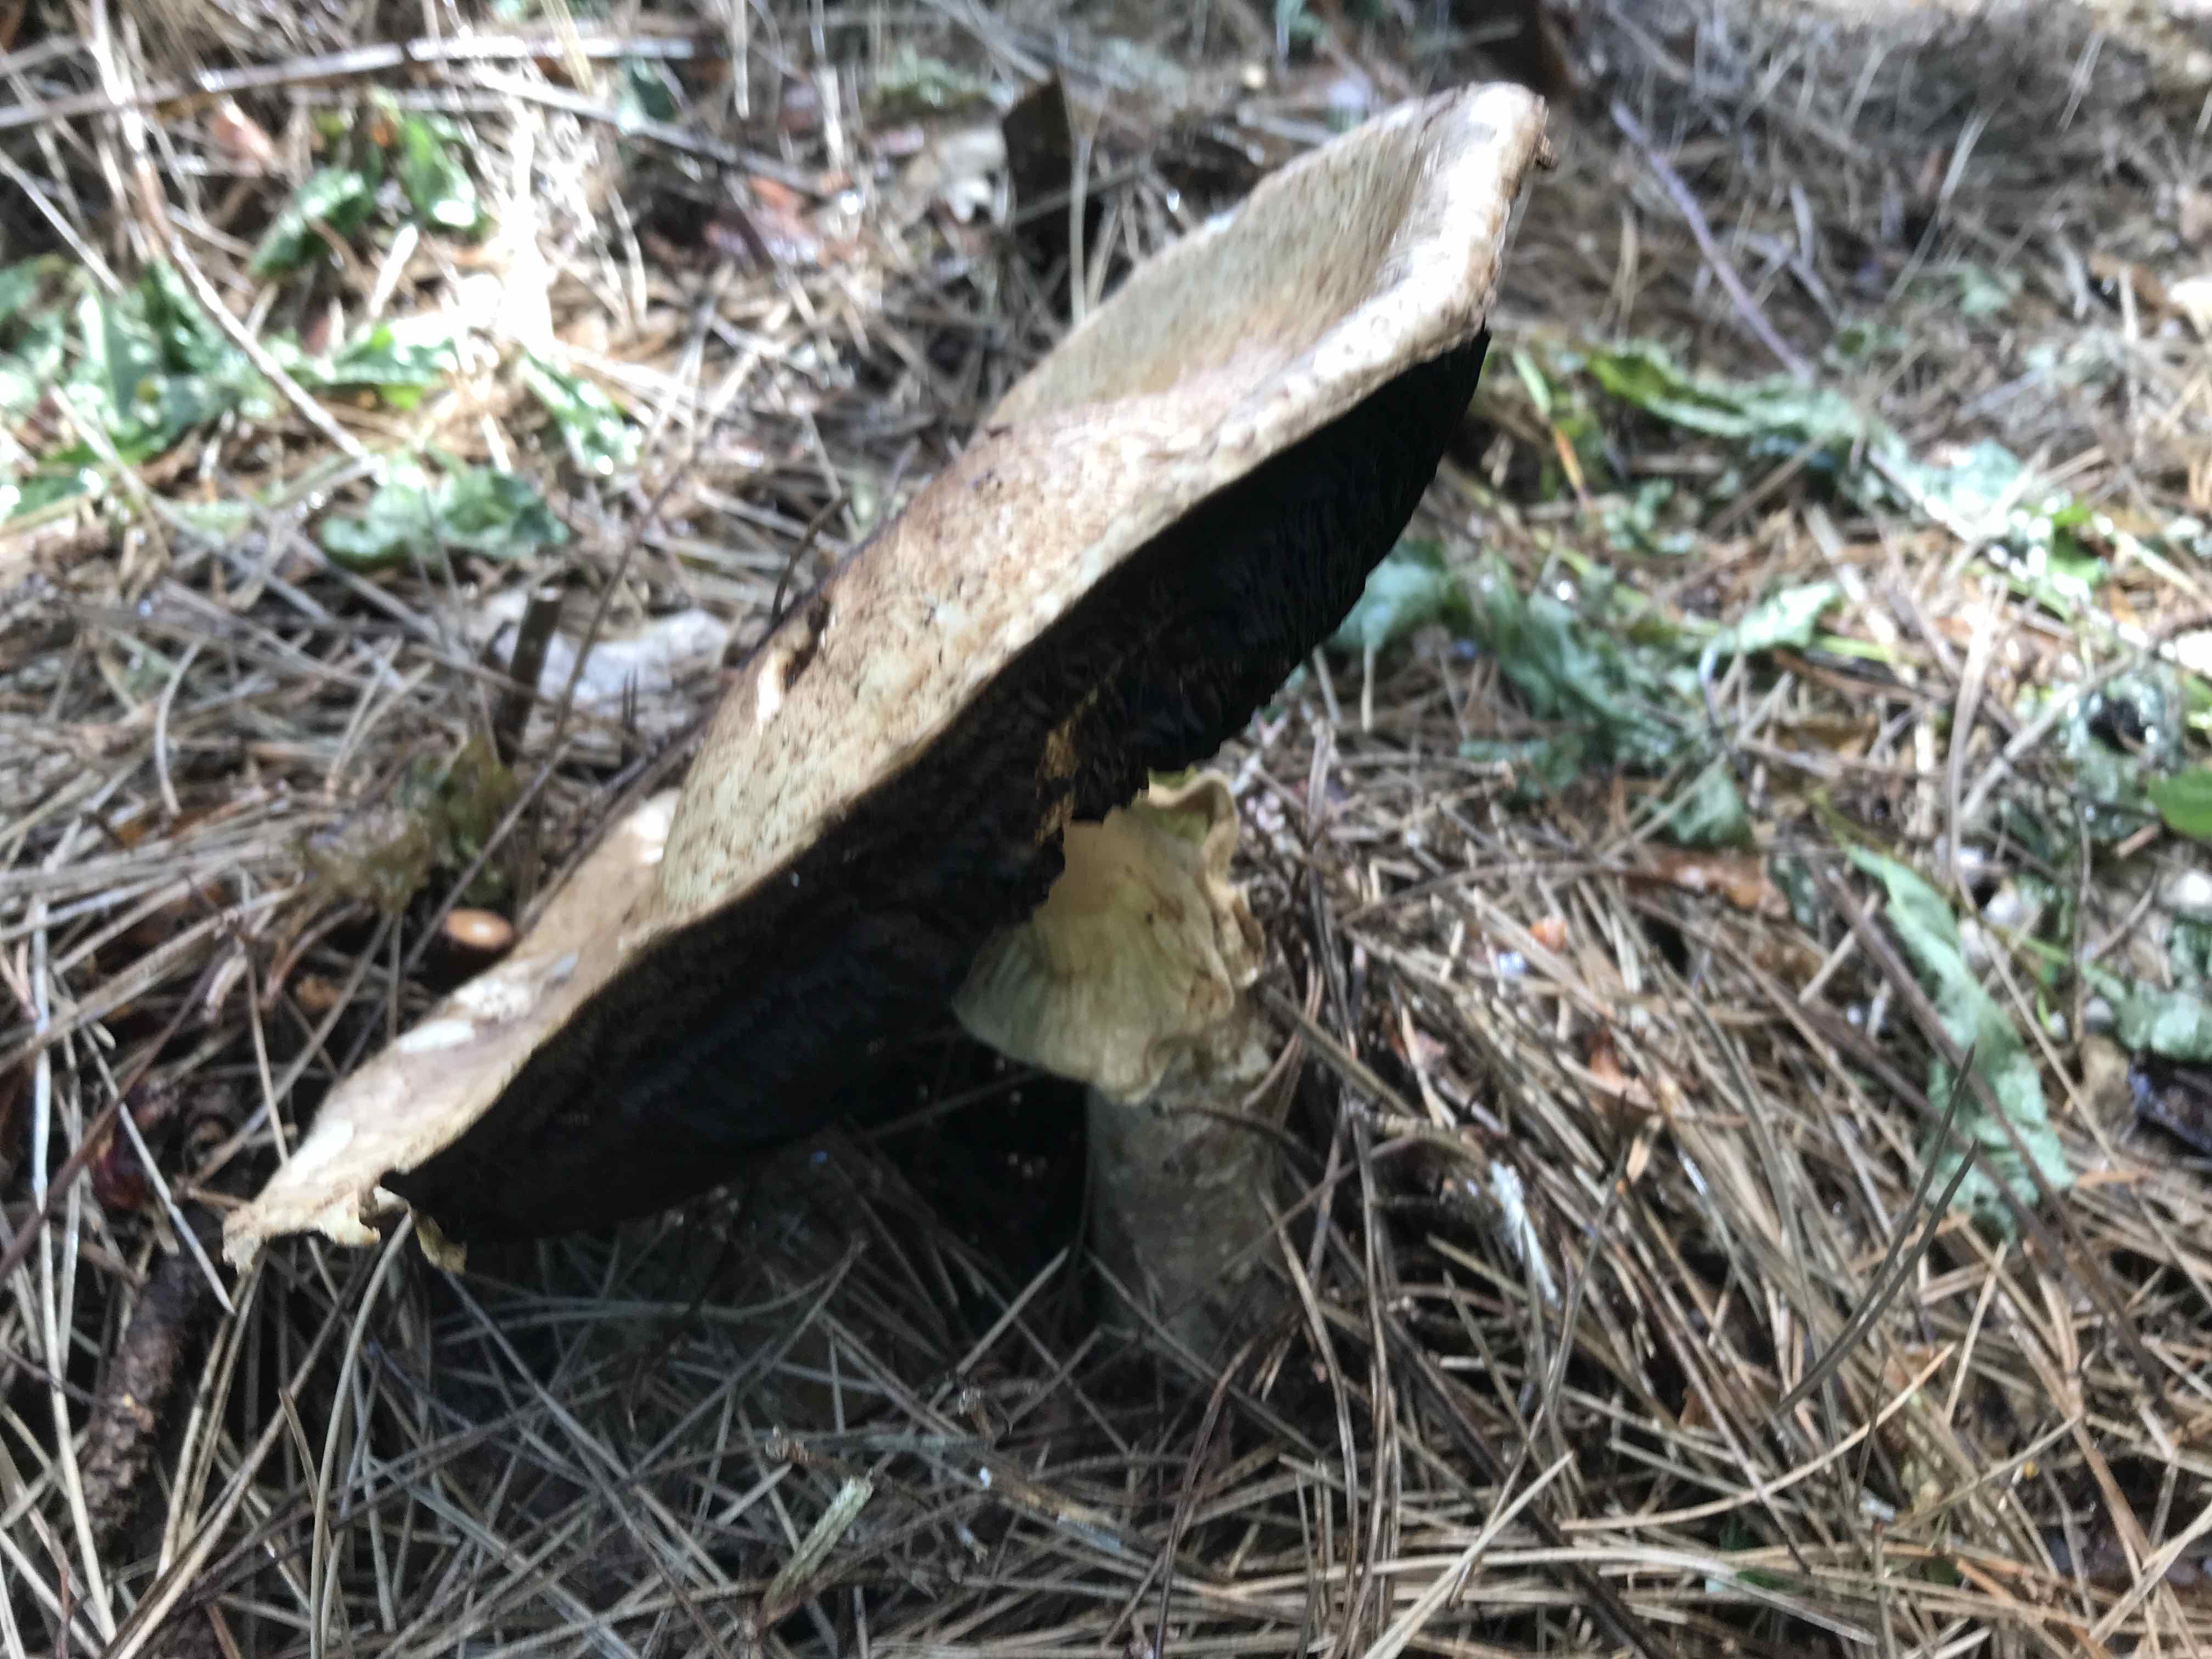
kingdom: Fungi
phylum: Basidiomycota
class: Agaricomycetes
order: Agaricales
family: Agaricaceae
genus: Agaricus
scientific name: Agaricus augustus
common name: prægtig champignon
